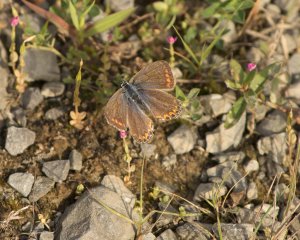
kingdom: Animalia
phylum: Arthropoda
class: Insecta
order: Lepidoptera
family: Lycaenidae
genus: Polyommatus
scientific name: Polyommatus icarus
